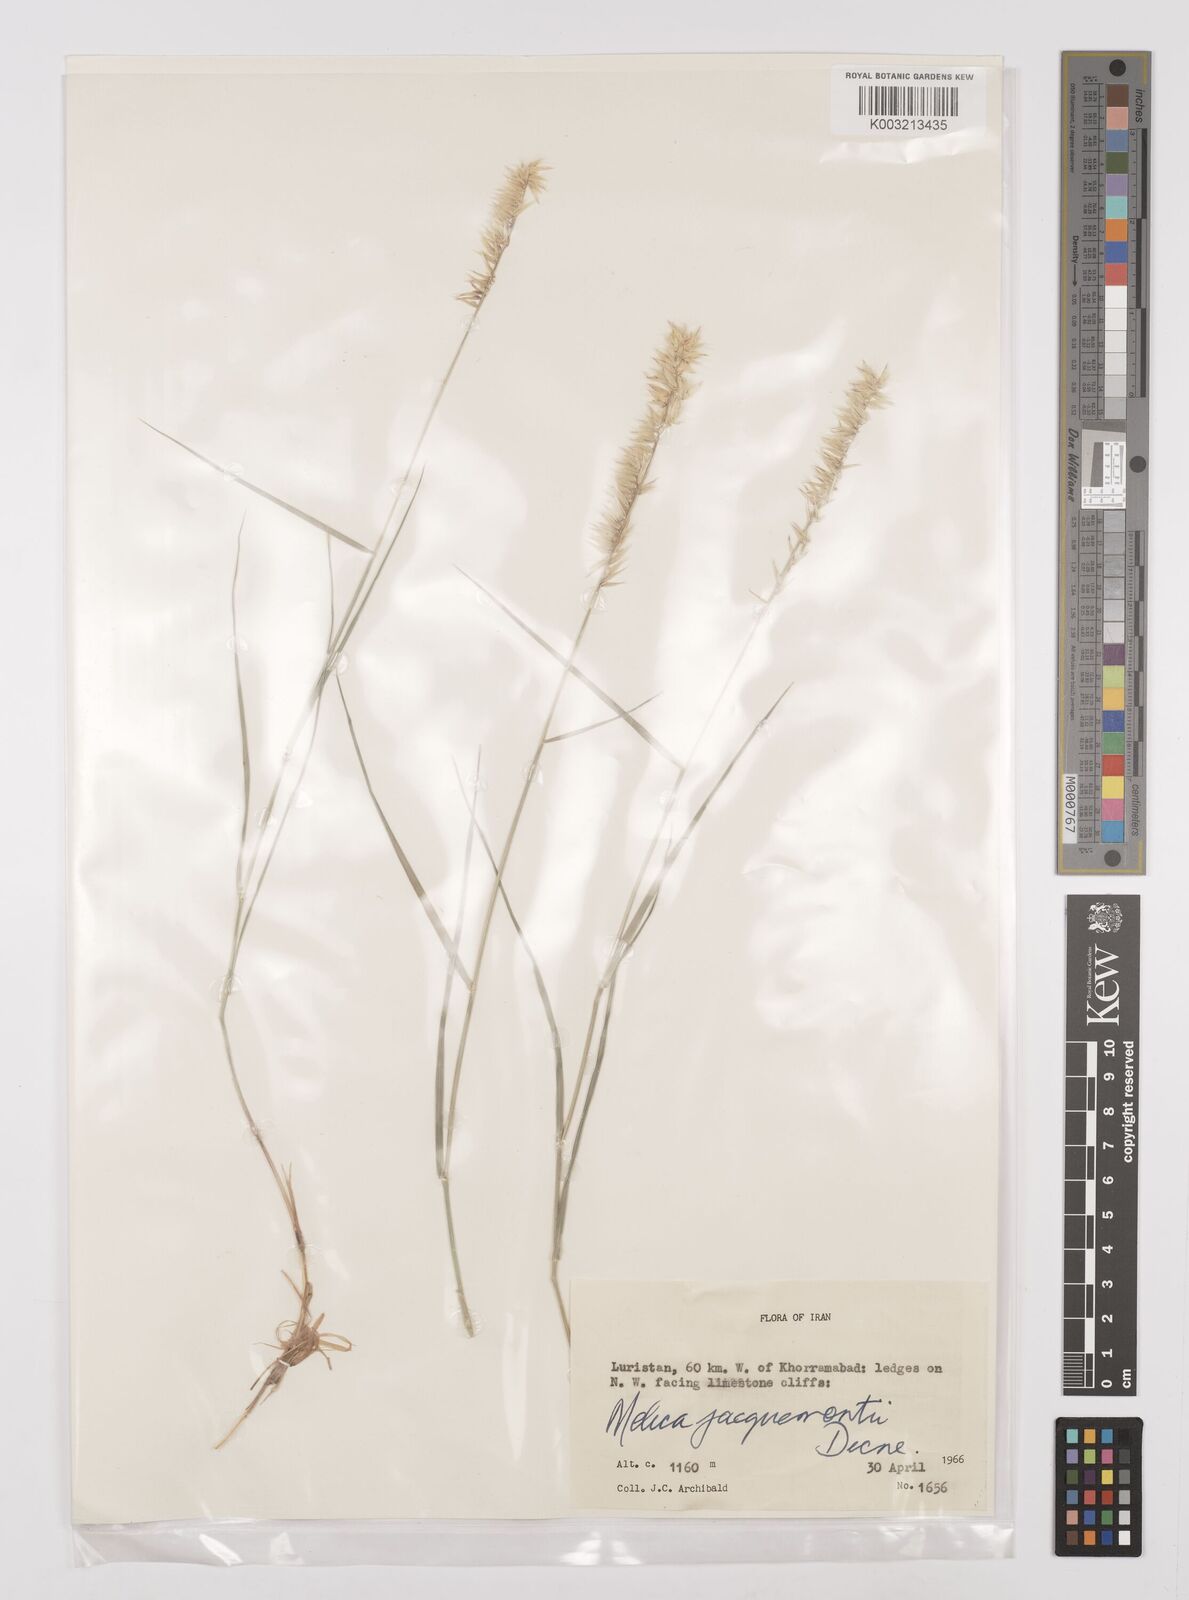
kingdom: Plantae
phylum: Tracheophyta
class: Liliopsida
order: Poales
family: Poaceae
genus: Melica
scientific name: Melica persica
